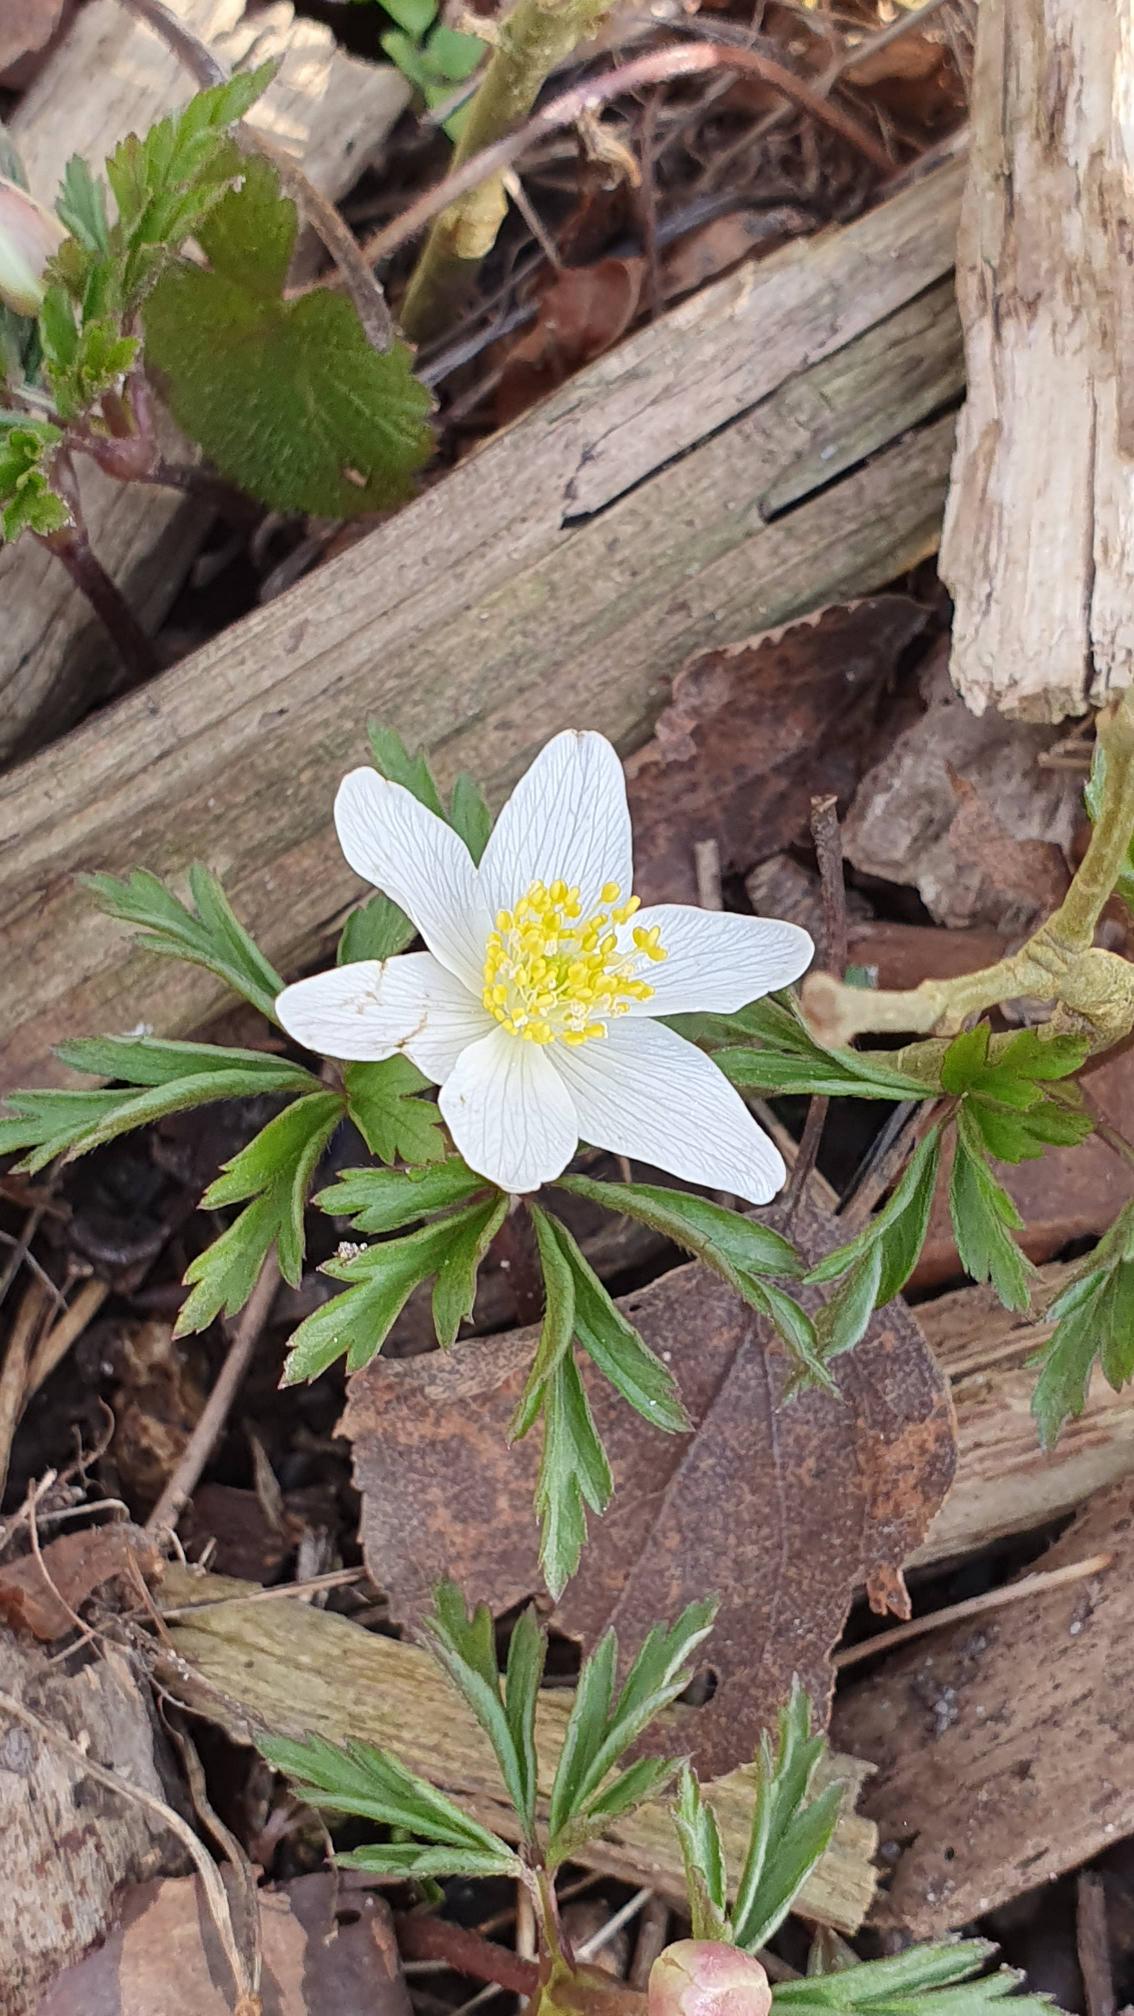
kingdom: Plantae
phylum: Tracheophyta
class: Magnoliopsida
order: Ranunculales
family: Ranunculaceae
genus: Anemone
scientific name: Anemone nemorosa
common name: Hvid anemone
